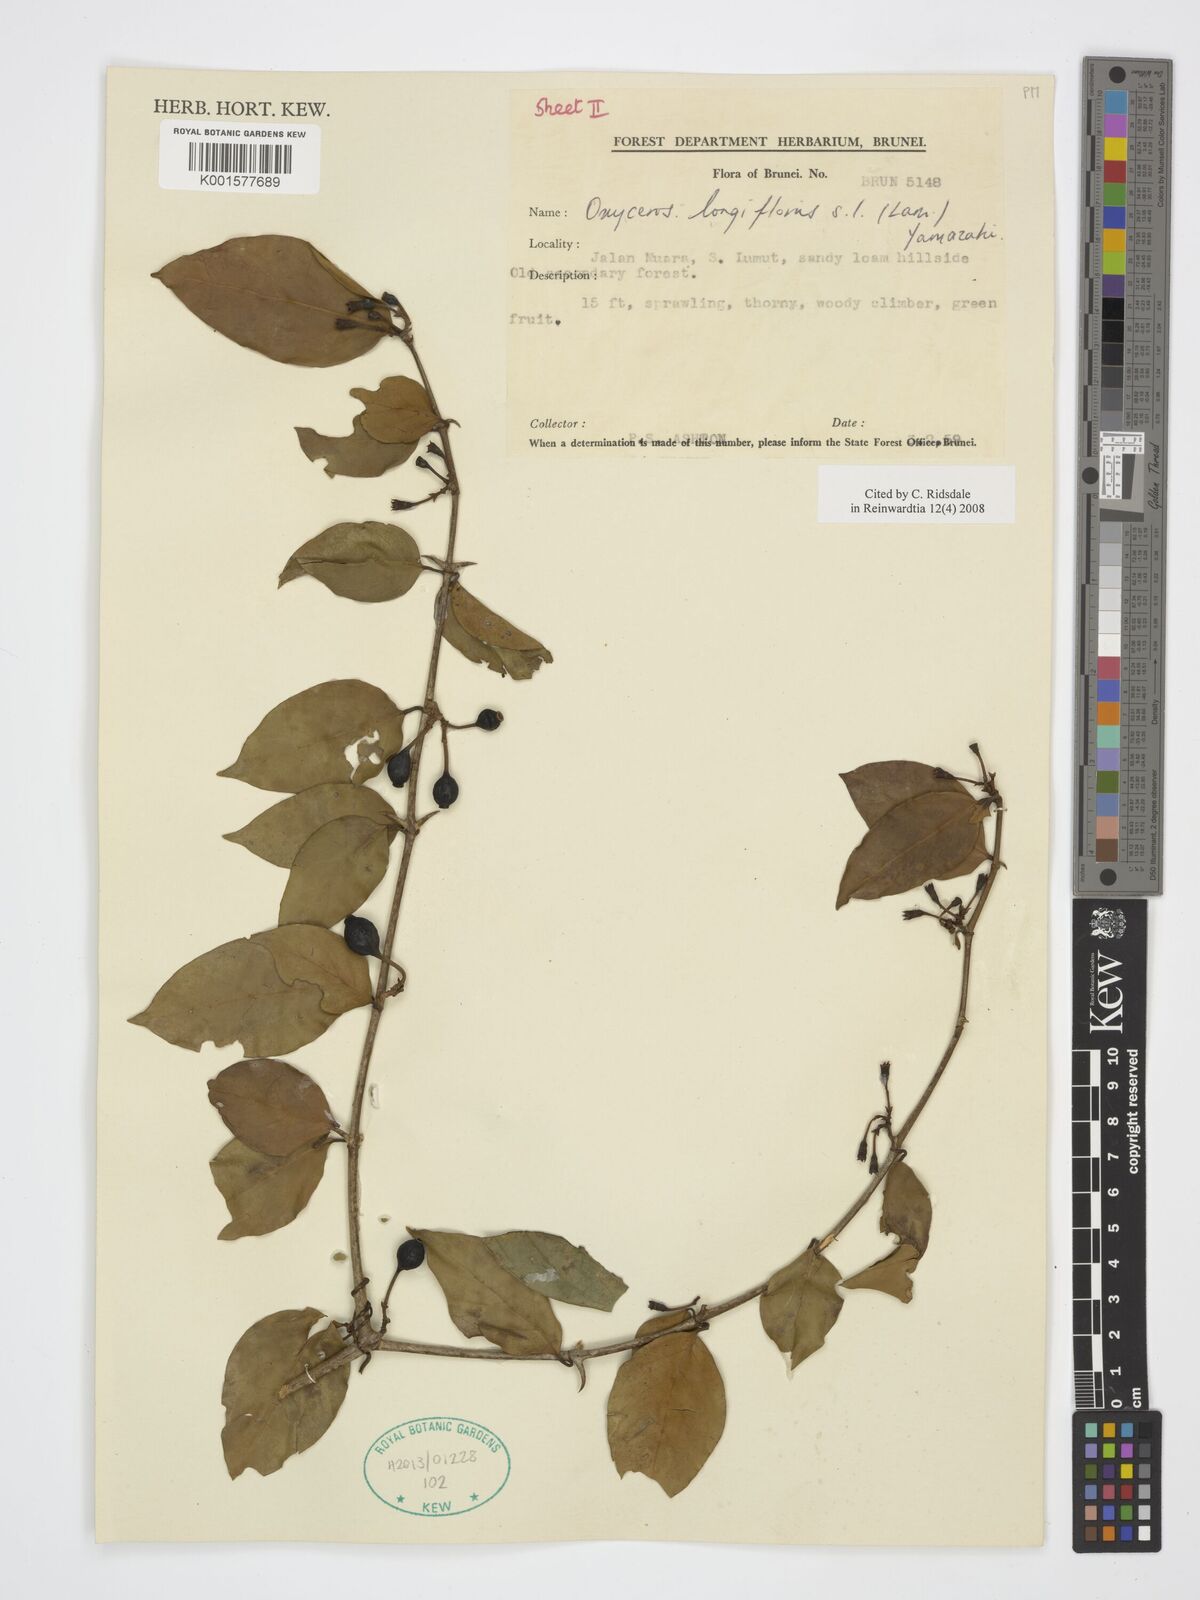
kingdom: Plantae
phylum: Tracheophyta
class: Magnoliopsida
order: Gentianales
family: Rubiaceae
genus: Oxyceros
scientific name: Oxyceros longiflorus
